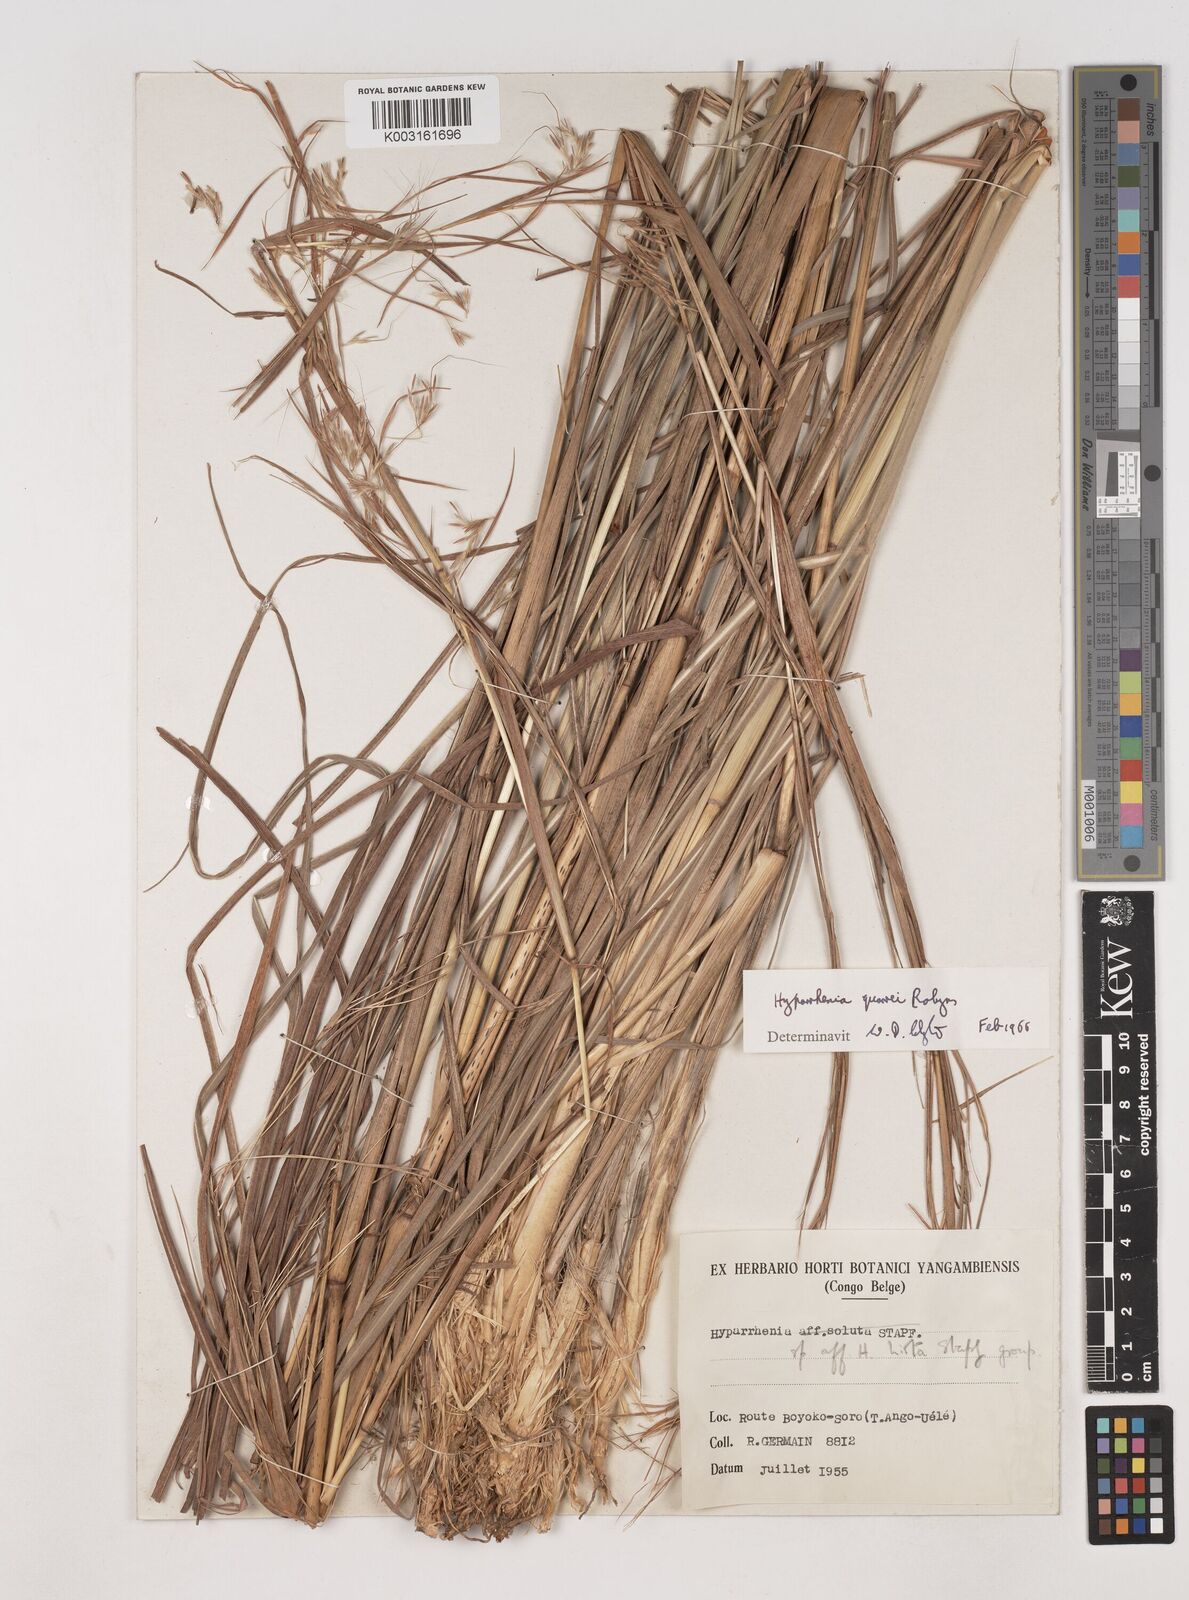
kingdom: Plantae
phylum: Tracheophyta
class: Liliopsida
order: Poales
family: Poaceae
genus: Hyparrhenia
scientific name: Hyparrhenia quarrei
